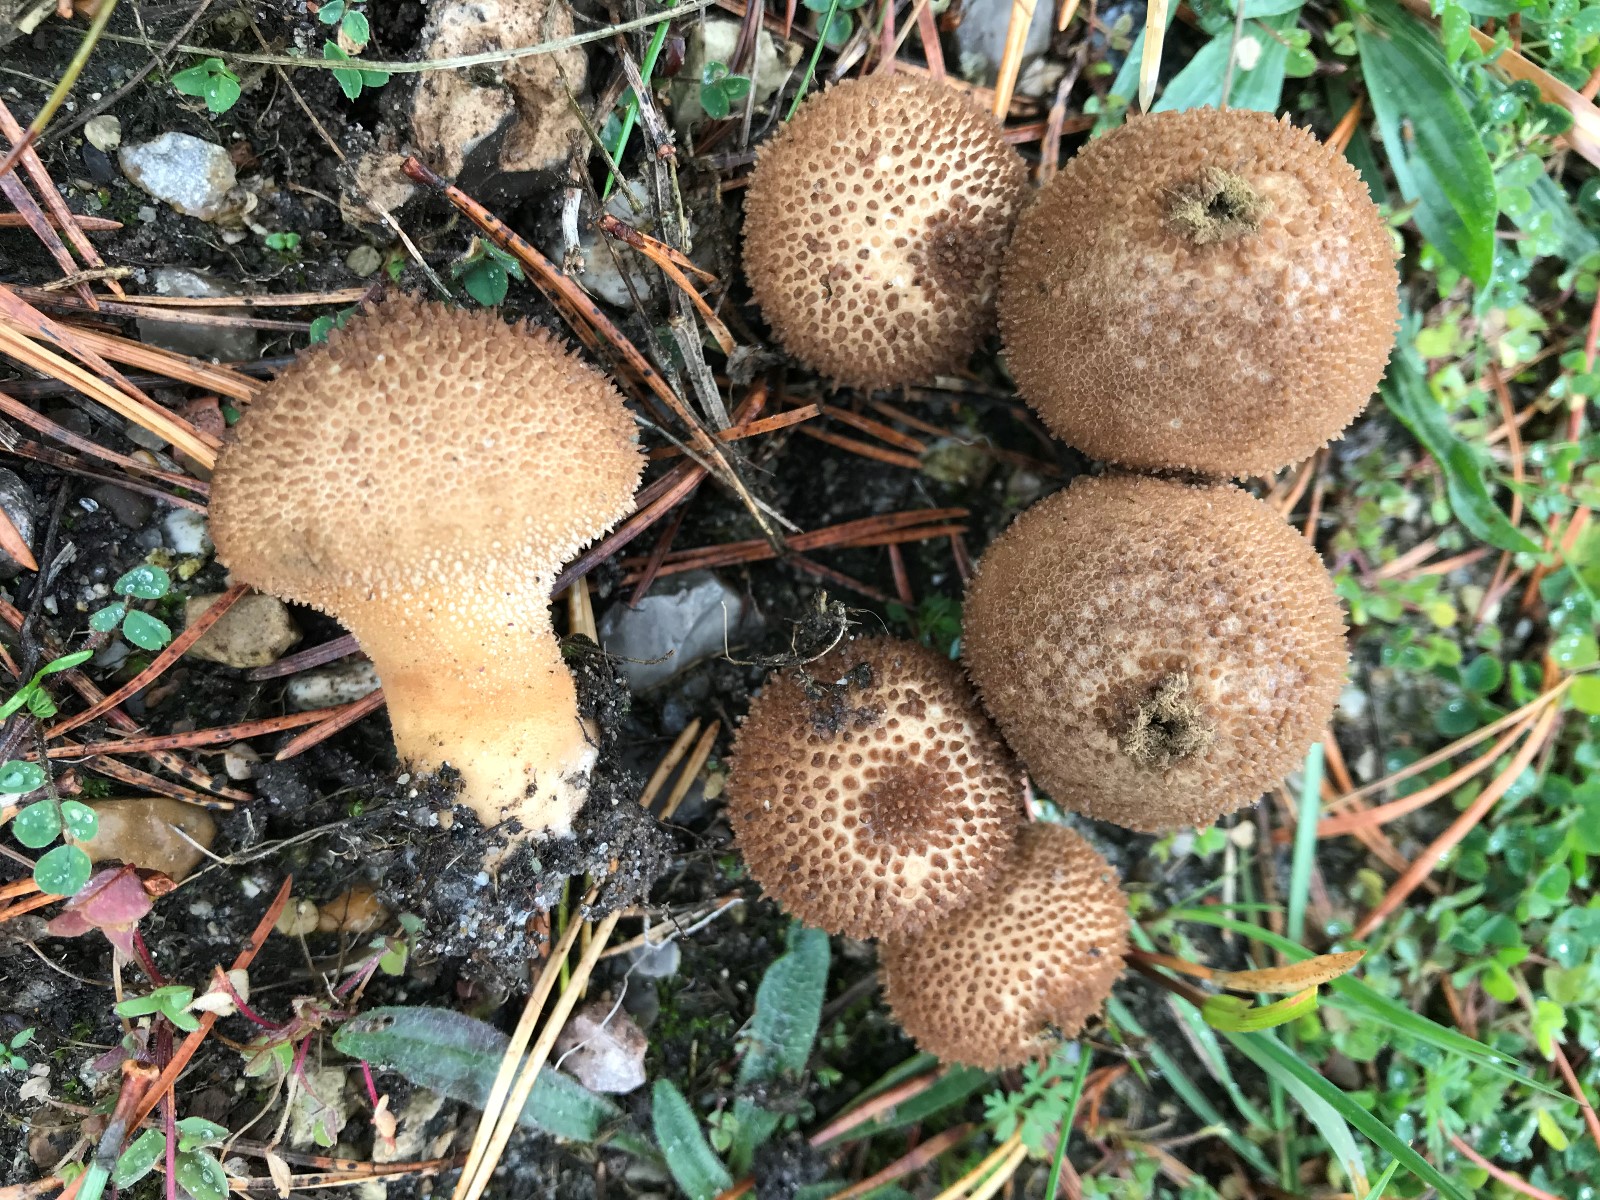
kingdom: Fungi
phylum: Basidiomycota
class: Agaricomycetes
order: Agaricales
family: Lycoperdaceae
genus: Lycoperdon
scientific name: Lycoperdon perlatum
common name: krystal-støvbold
